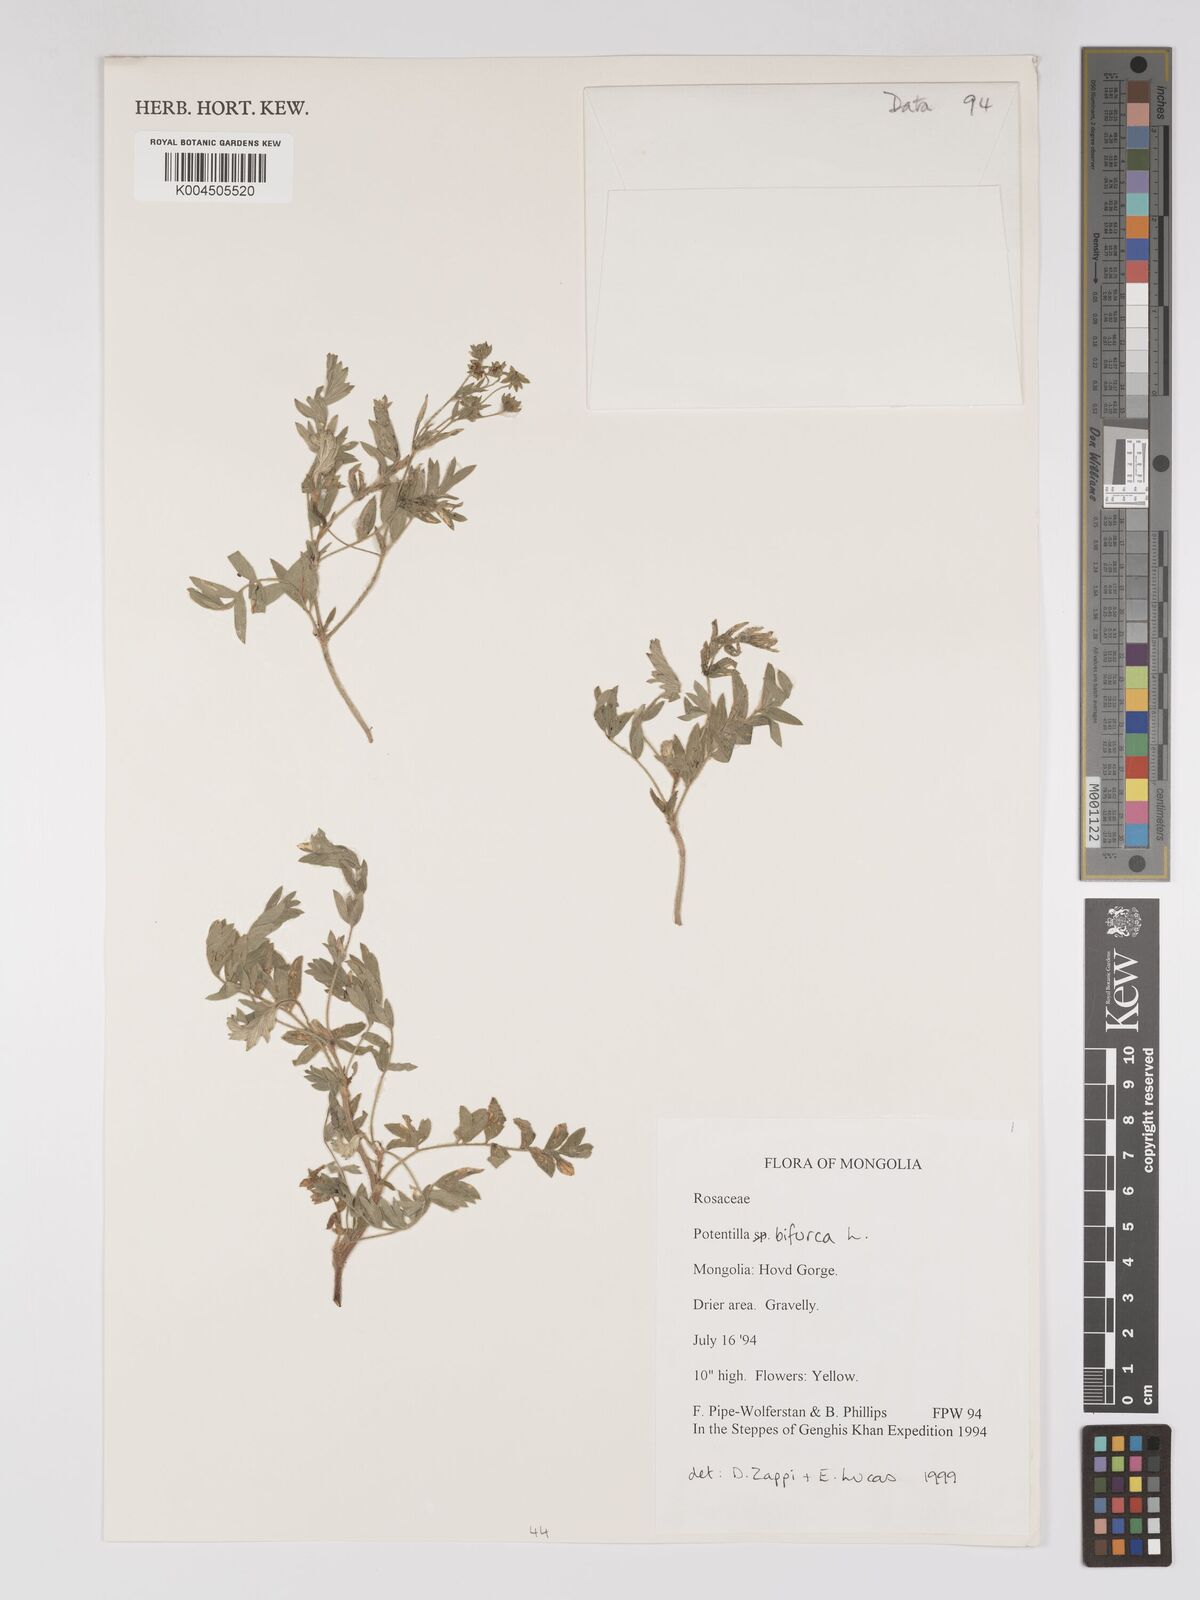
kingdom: Plantae
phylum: Tracheophyta
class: Magnoliopsida
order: Rosales
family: Rosaceae
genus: Sibbaldianthe
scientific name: Sibbaldianthe bifurca
